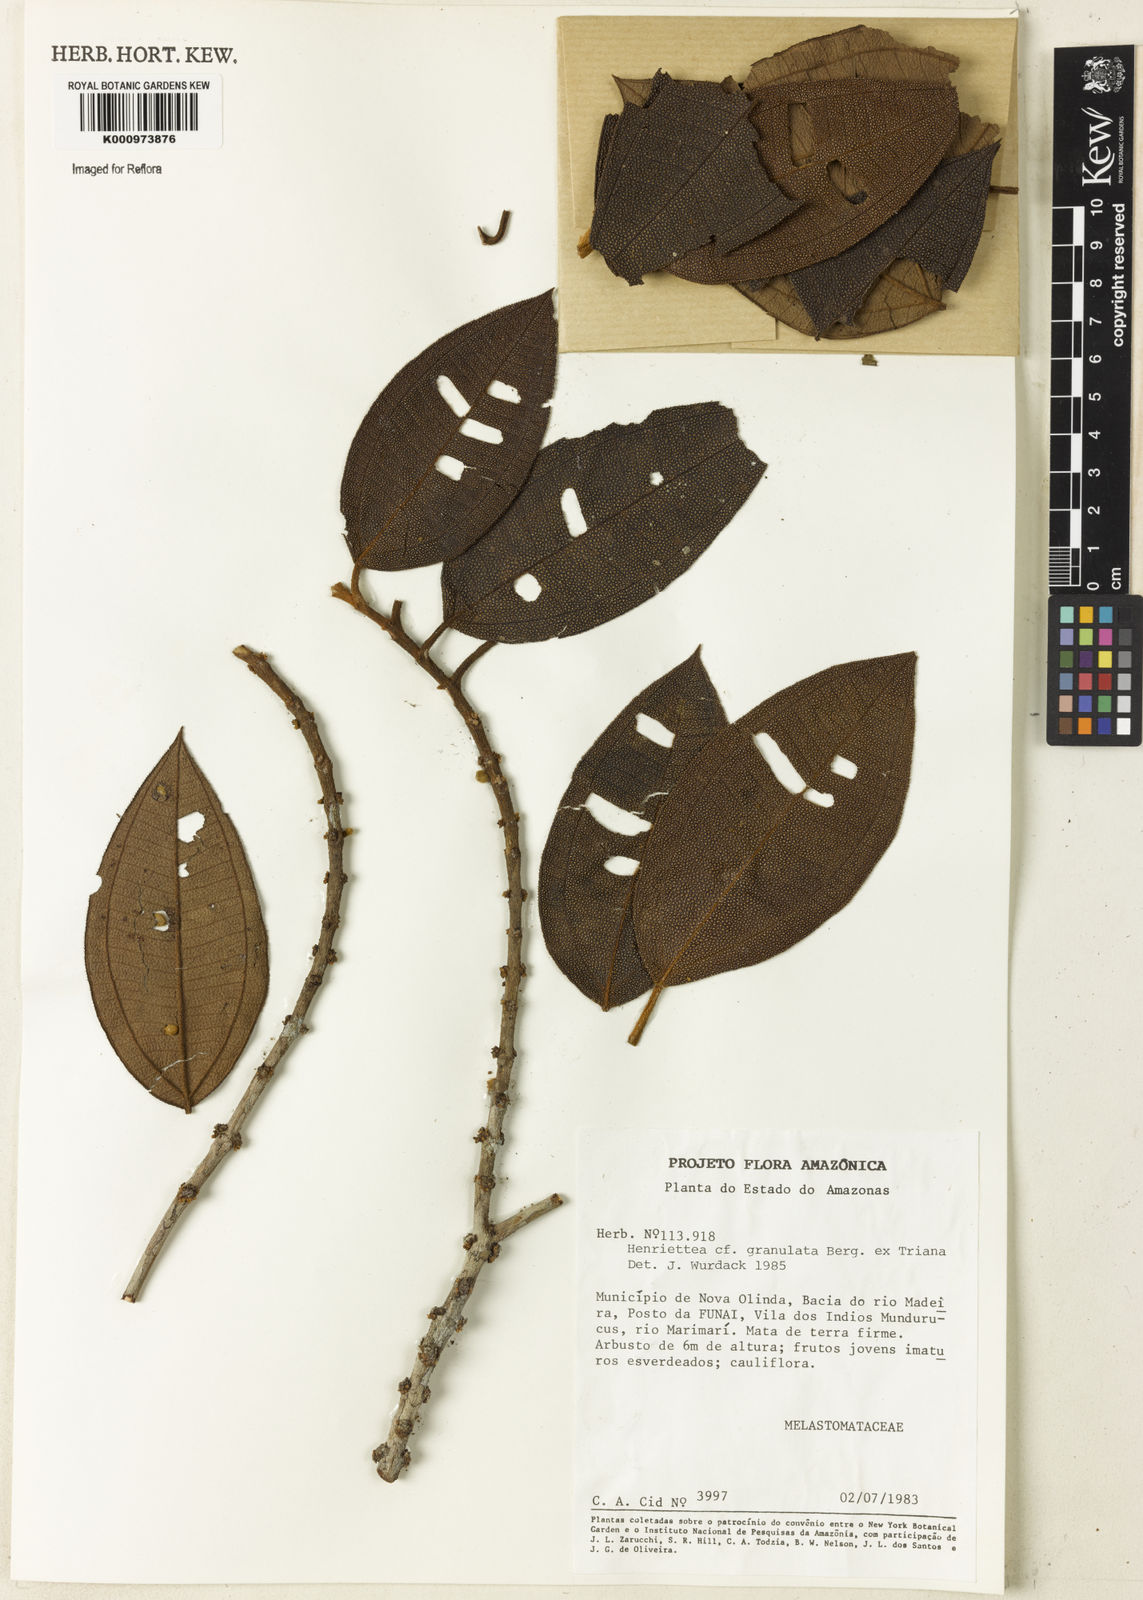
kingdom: Plantae
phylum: Tracheophyta
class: Magnoliopsida
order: Myrtales
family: Melastomataceae
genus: Henriettea
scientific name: Henriettea granulata
